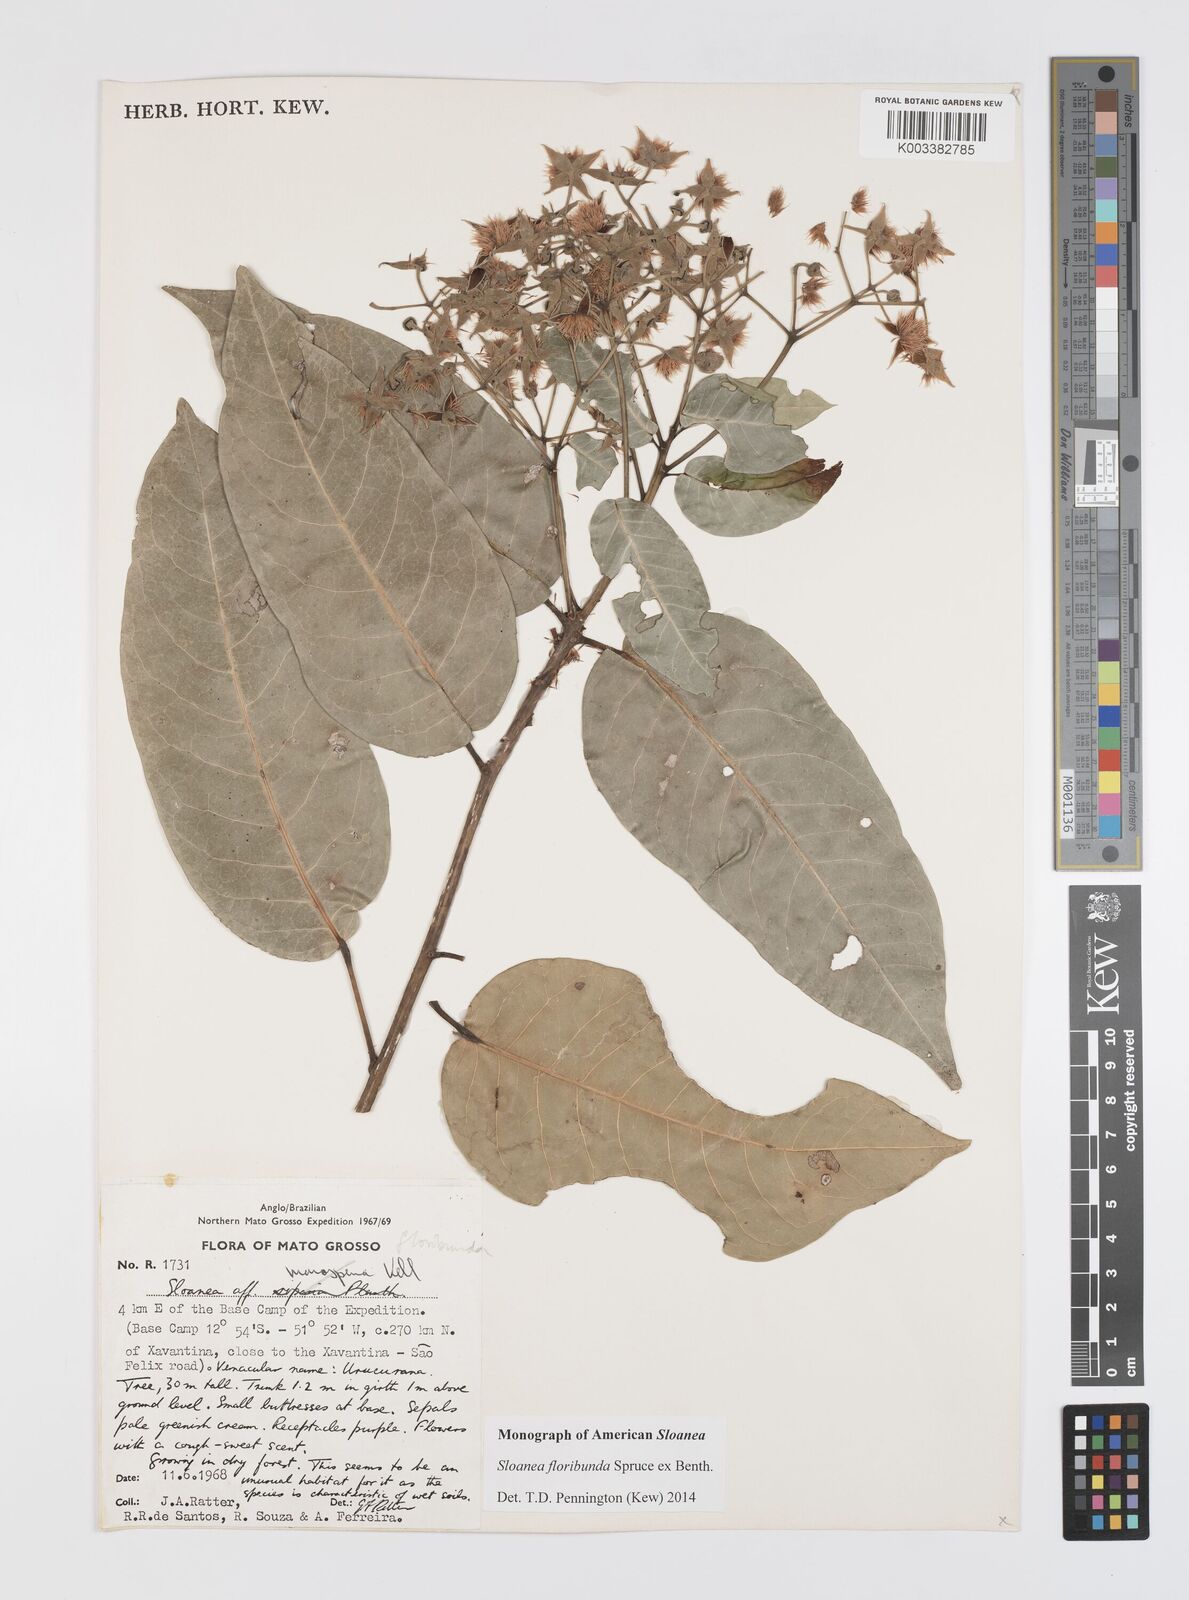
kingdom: Plantae
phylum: Tracheophyta
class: Magnoliopsida
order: Oxalidales
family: Elaeocarpaceae
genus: Sloanea
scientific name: Sloanea floribunda
